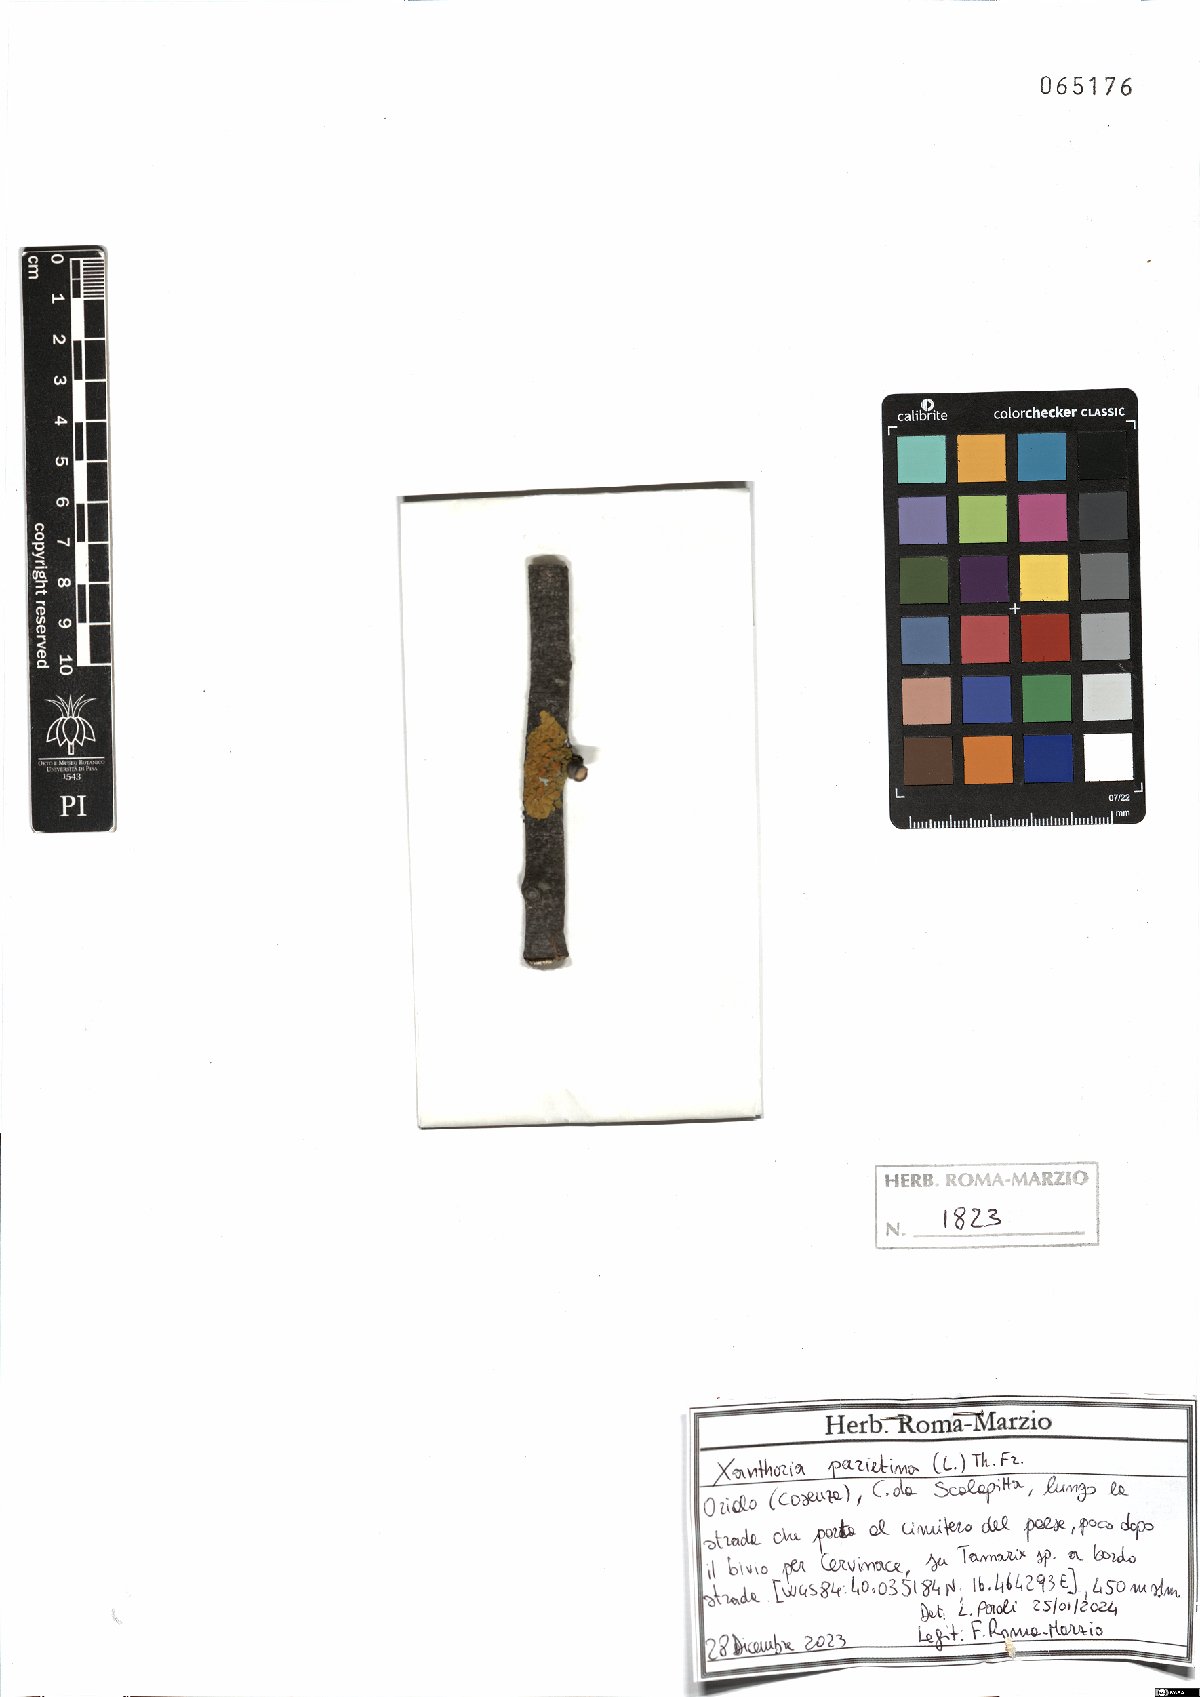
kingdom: Fungi
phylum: Ascomycota
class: Lecanoromycetes
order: Teloschistales
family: Teloschistaceae
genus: Xanthoria
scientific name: Xanthoria parietina
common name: Common orange lichen
